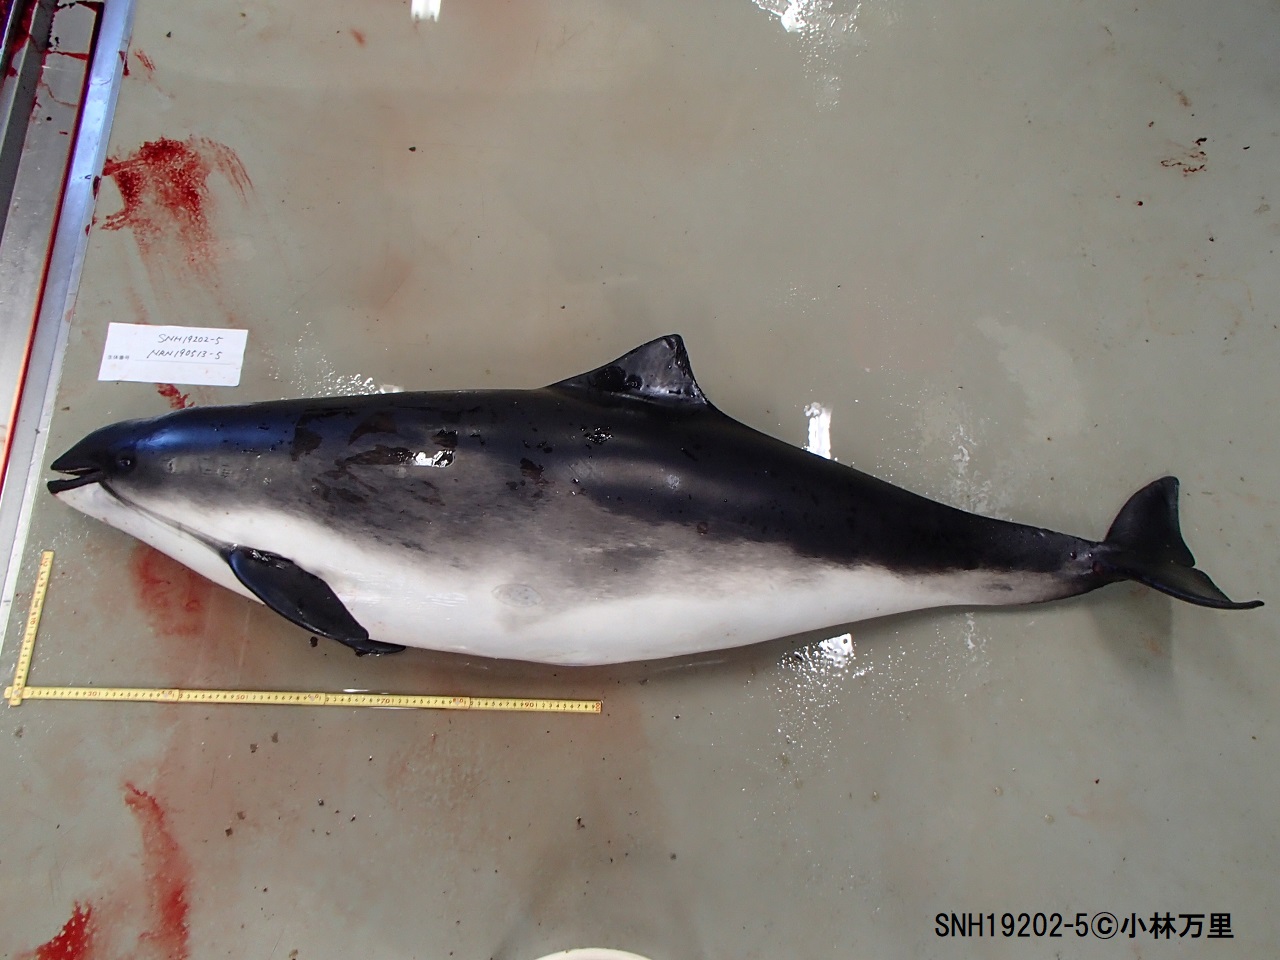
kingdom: Animalia
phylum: Chordata
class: Mammalia
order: Cetacea
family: Phocoenidae
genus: Phocoena
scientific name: Phocoena phocoena
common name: Harbour porpoise
